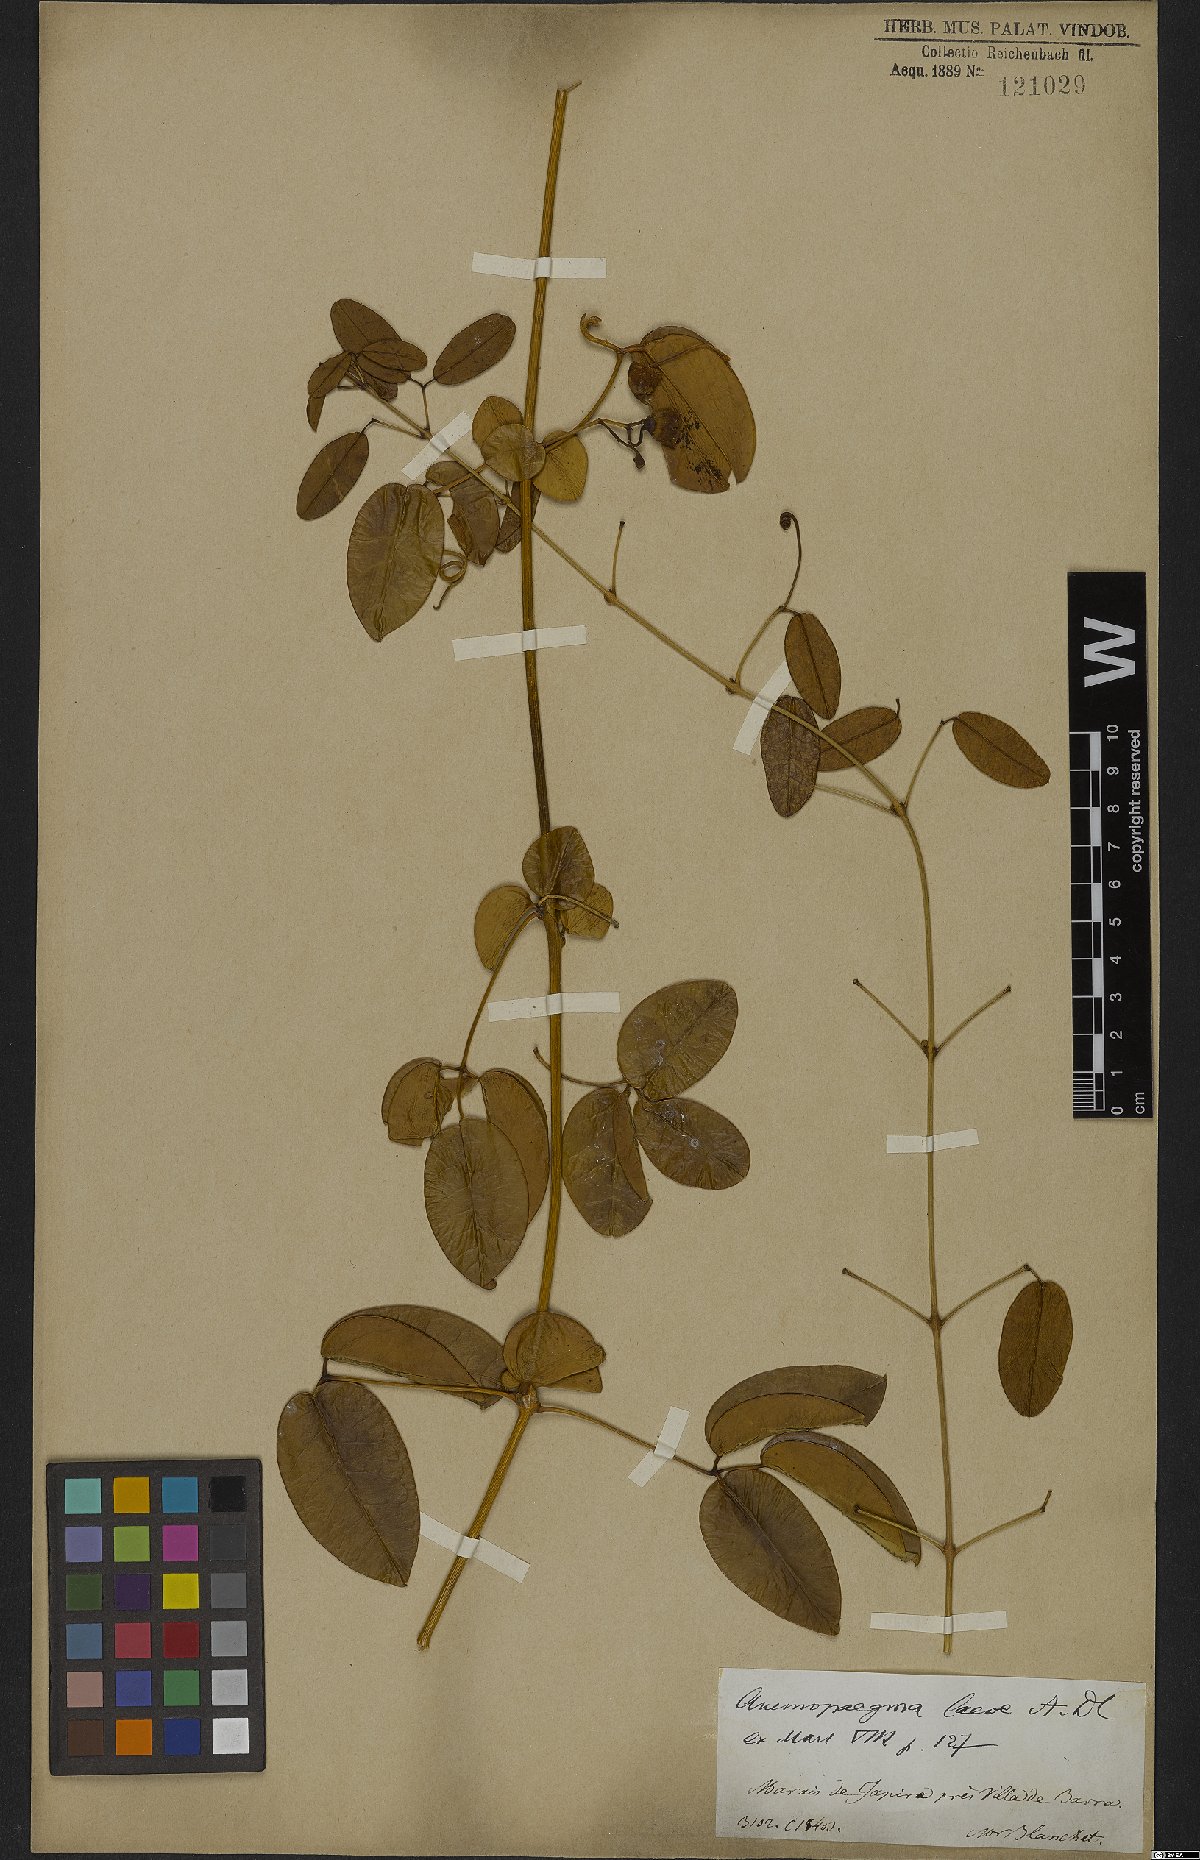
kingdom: Plantae
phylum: Tracheophyta
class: Magnoliopsida
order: Lamiales
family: Bignoniaceae
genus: Anemopaegma
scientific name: Anemopaegma laeve
